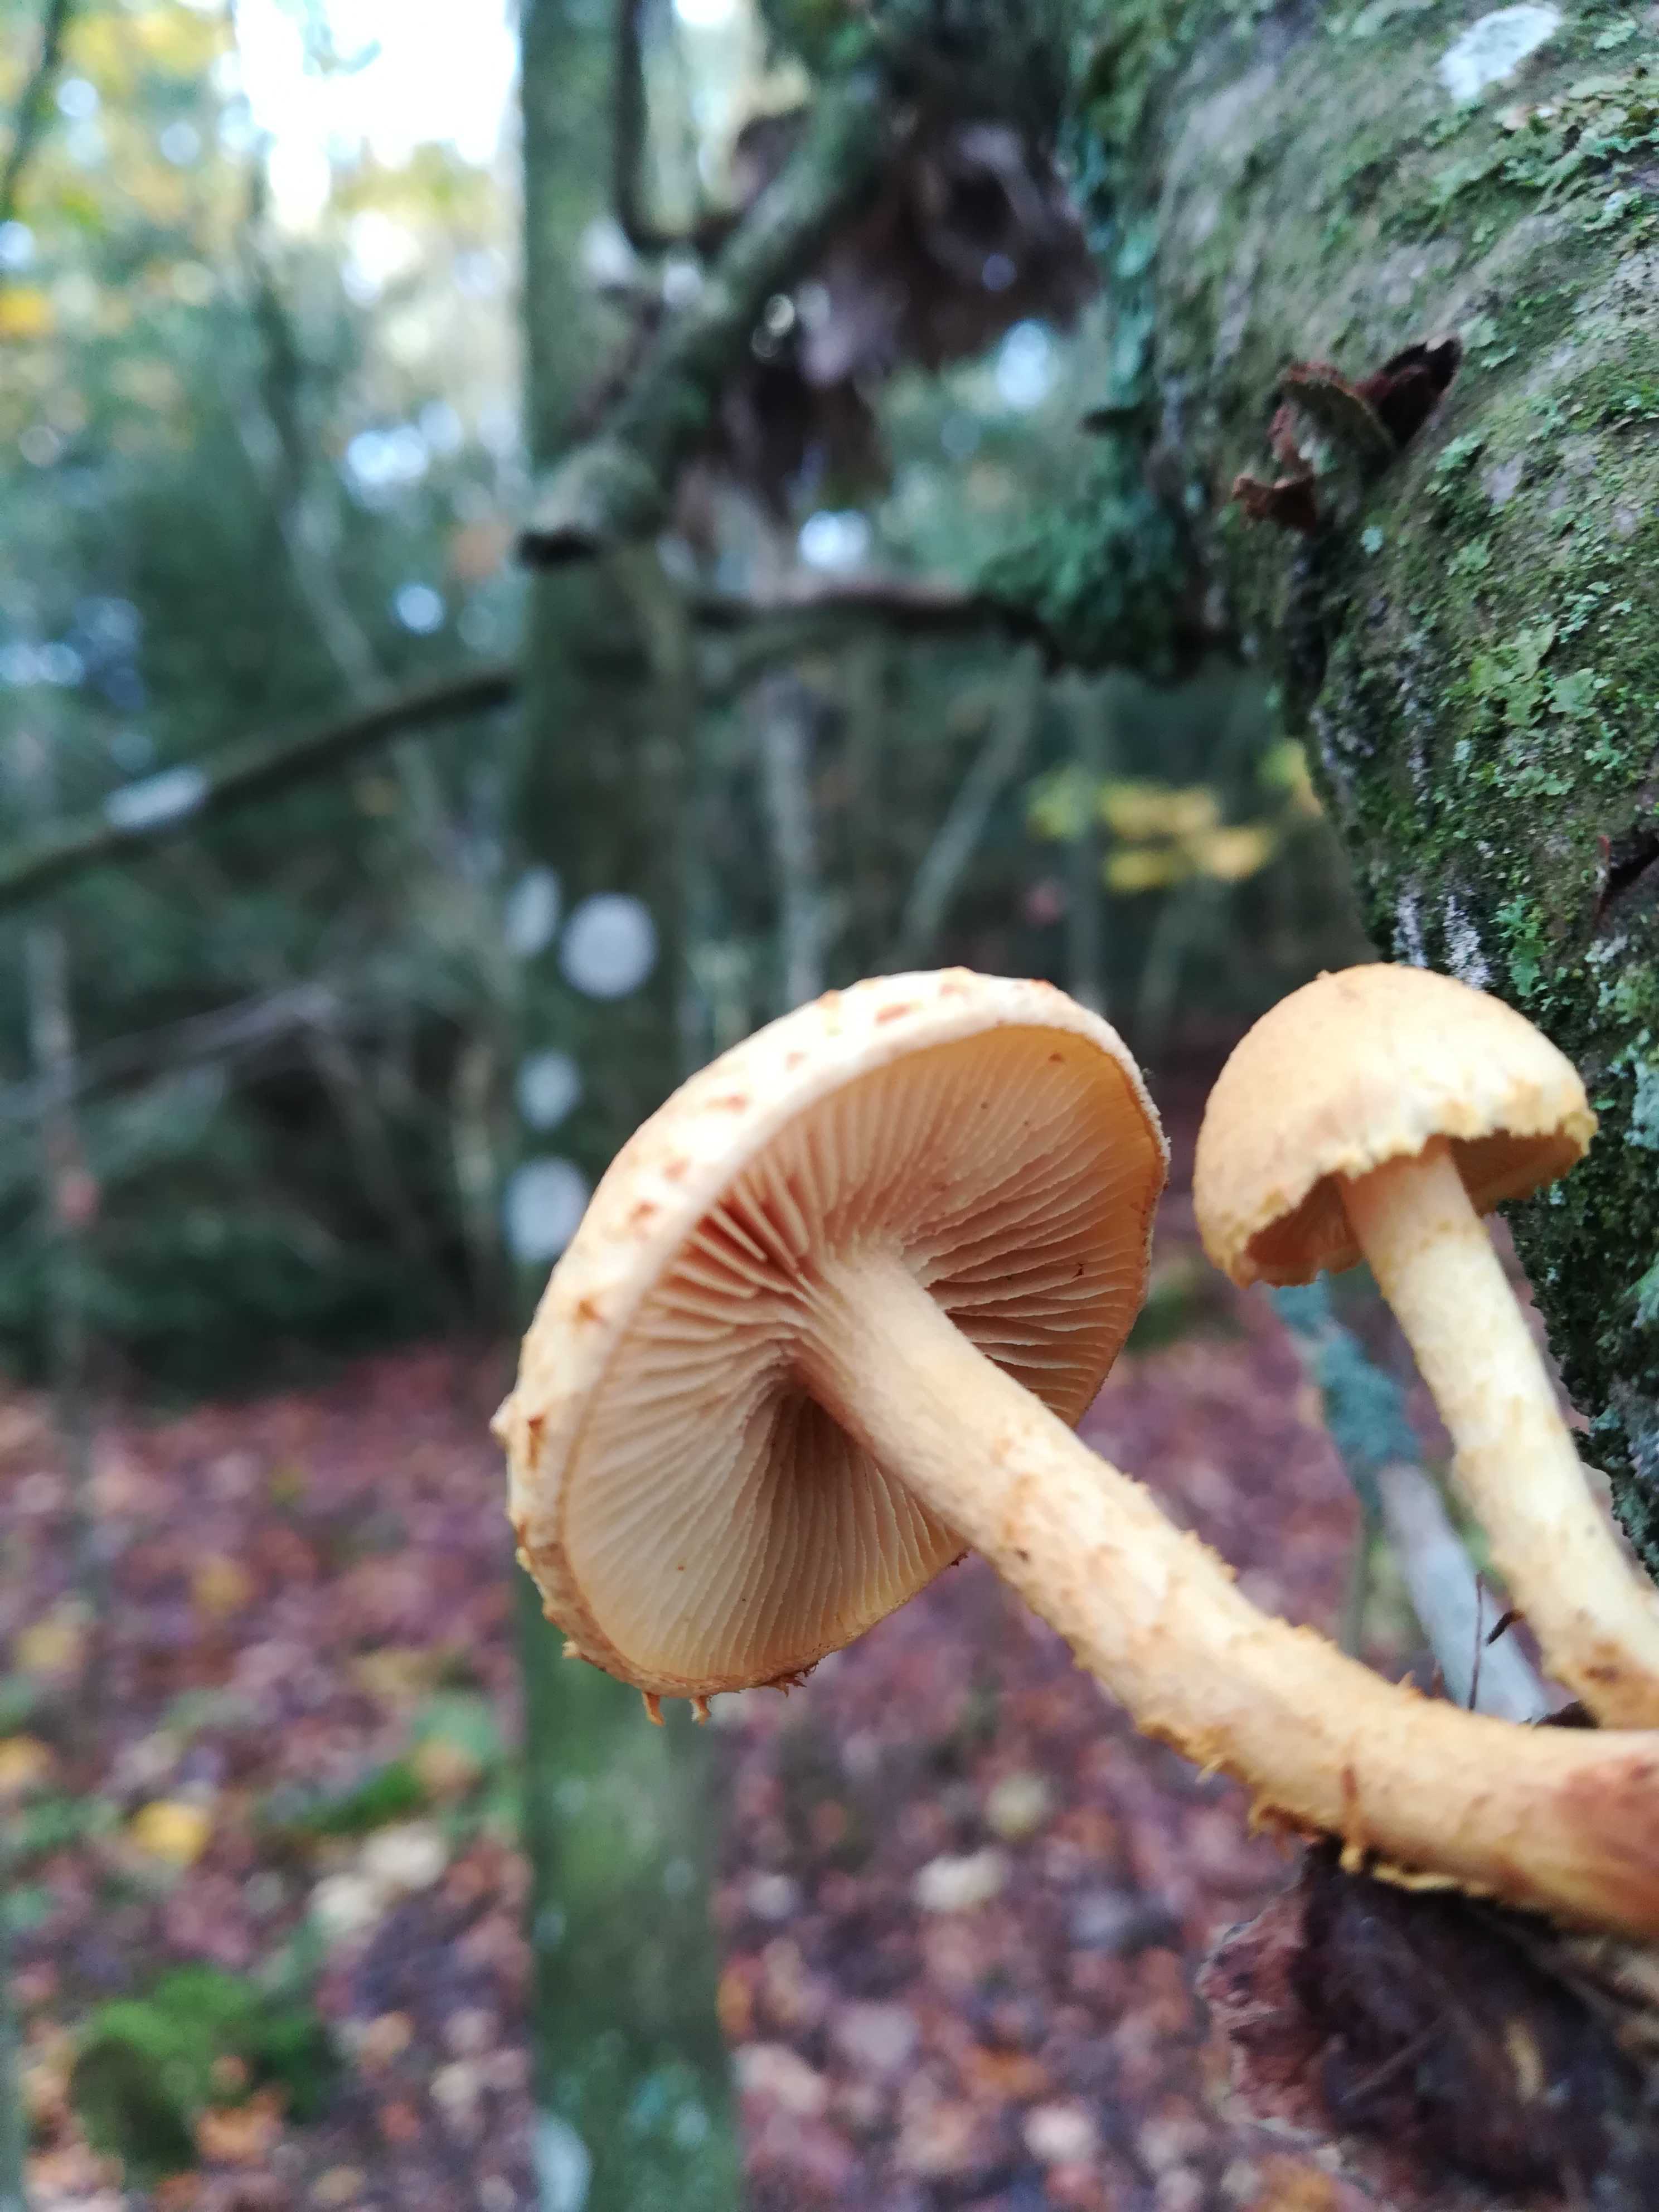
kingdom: Fungi
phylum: Basidiomycota
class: Agaricomycetes
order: Agaricales
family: Strophariaceae
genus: Pholiota
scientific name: Pholiota tuberculosa
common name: finskællet skælhat
